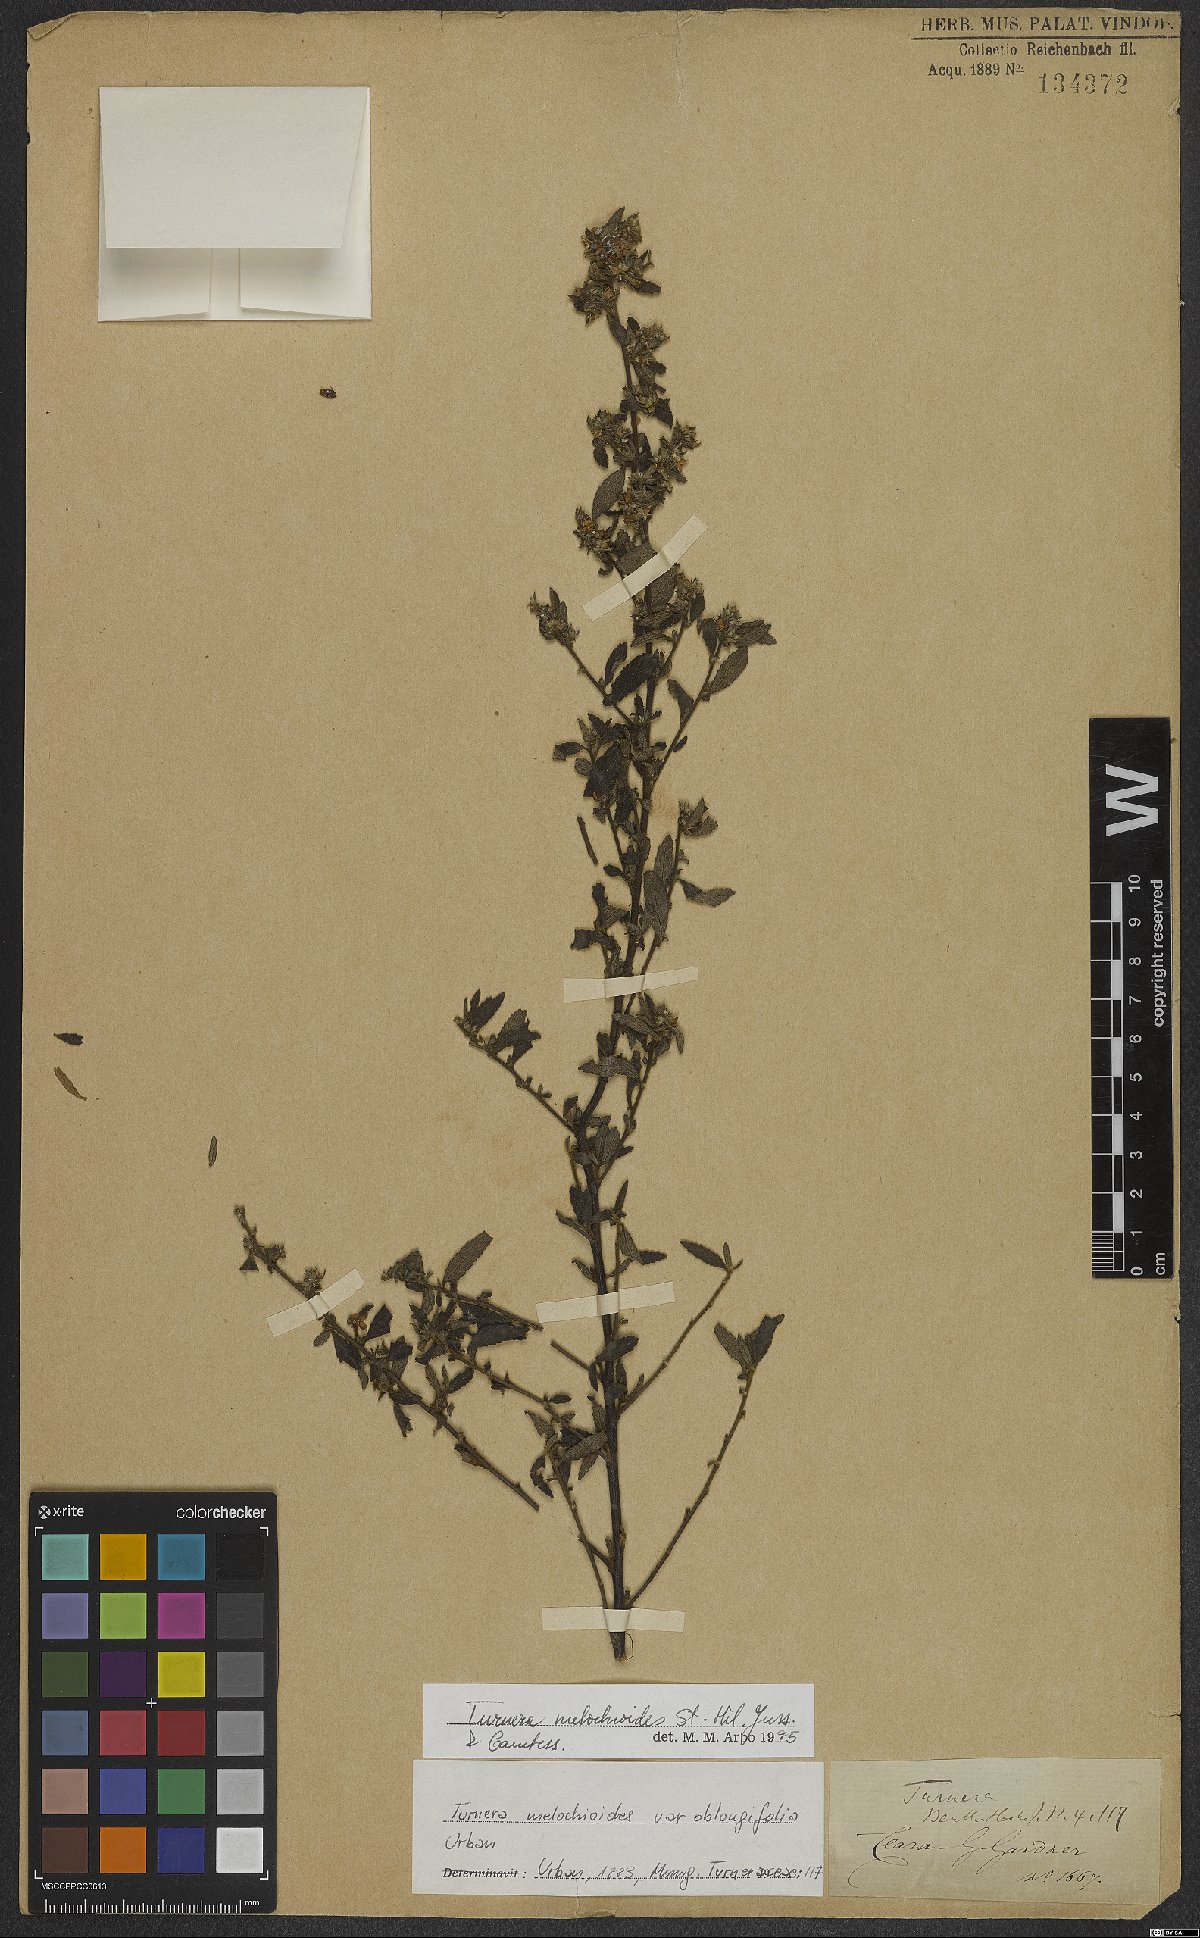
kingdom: Plantae
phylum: Tracheophyta
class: Magnoliopsida
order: Malpighiales
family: Turneraceae
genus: Turnera
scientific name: Turnera melochioides
